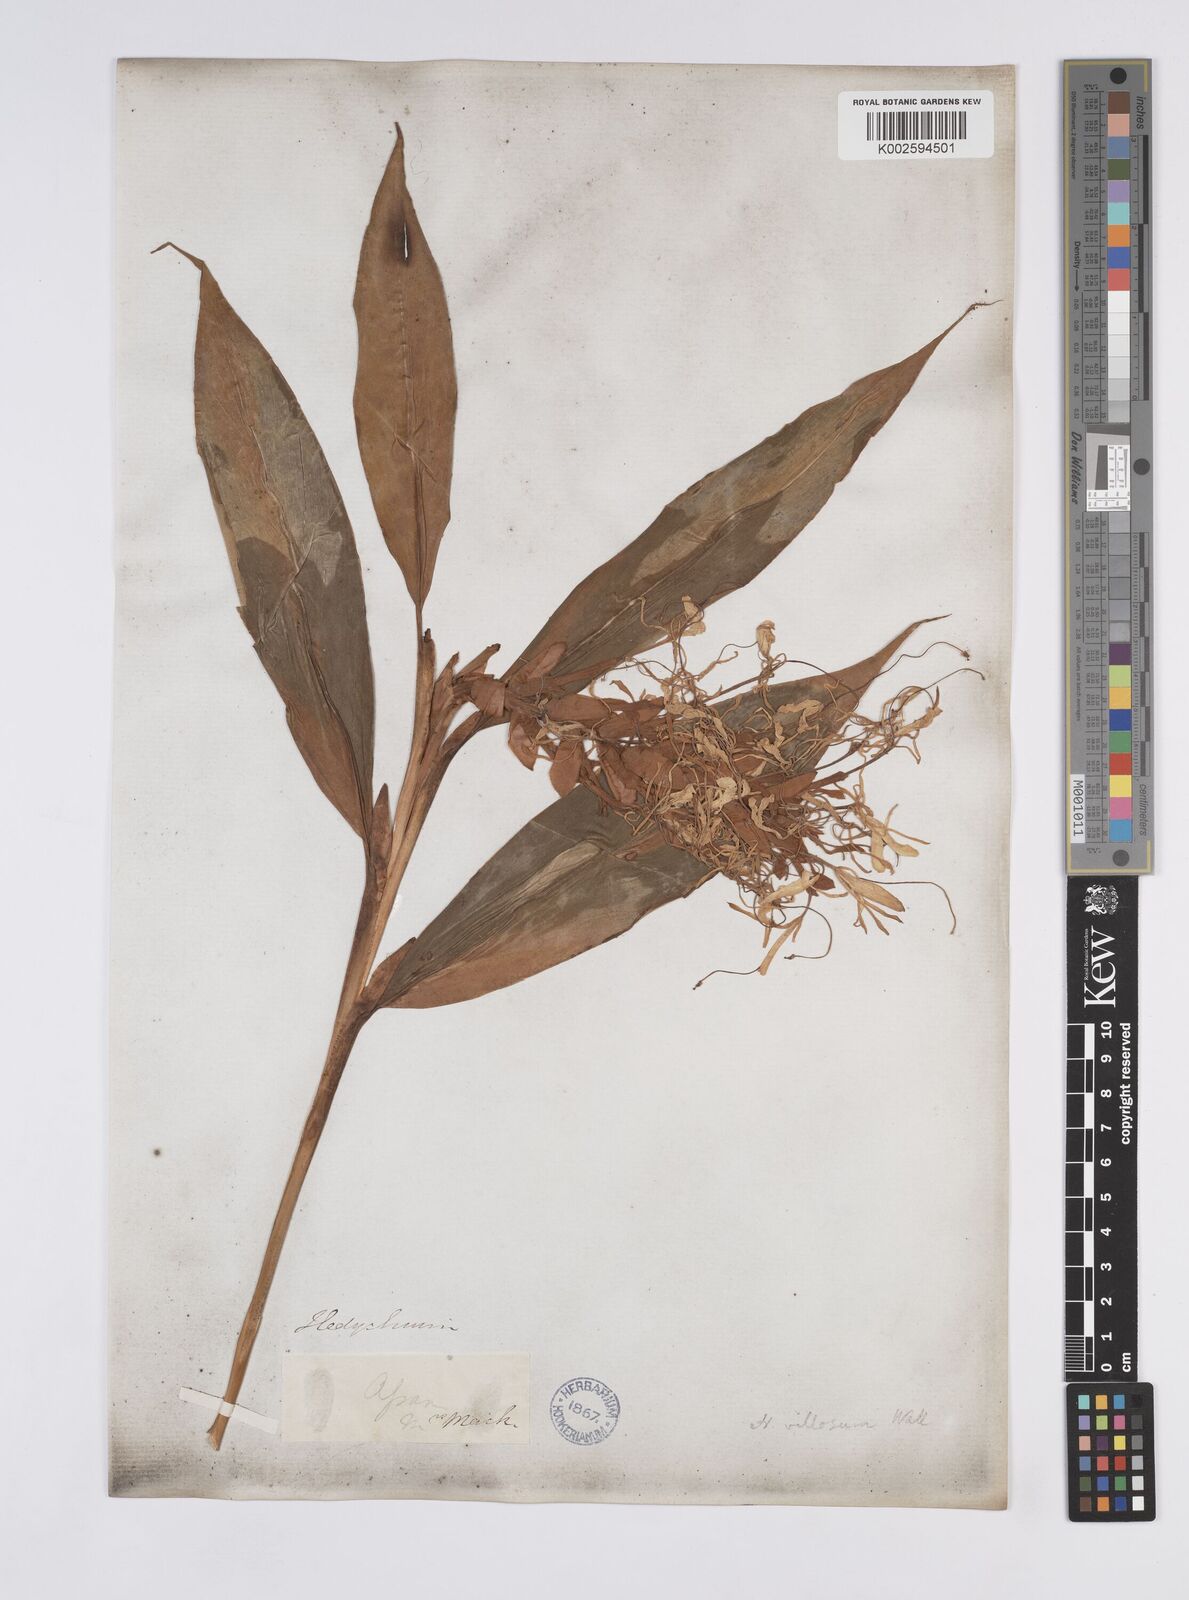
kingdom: Plantae
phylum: Tracheophyta
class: Liliopsida
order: Zingiberales
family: Zingiberaceae
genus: Hedychium
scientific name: Hedychium villosum
